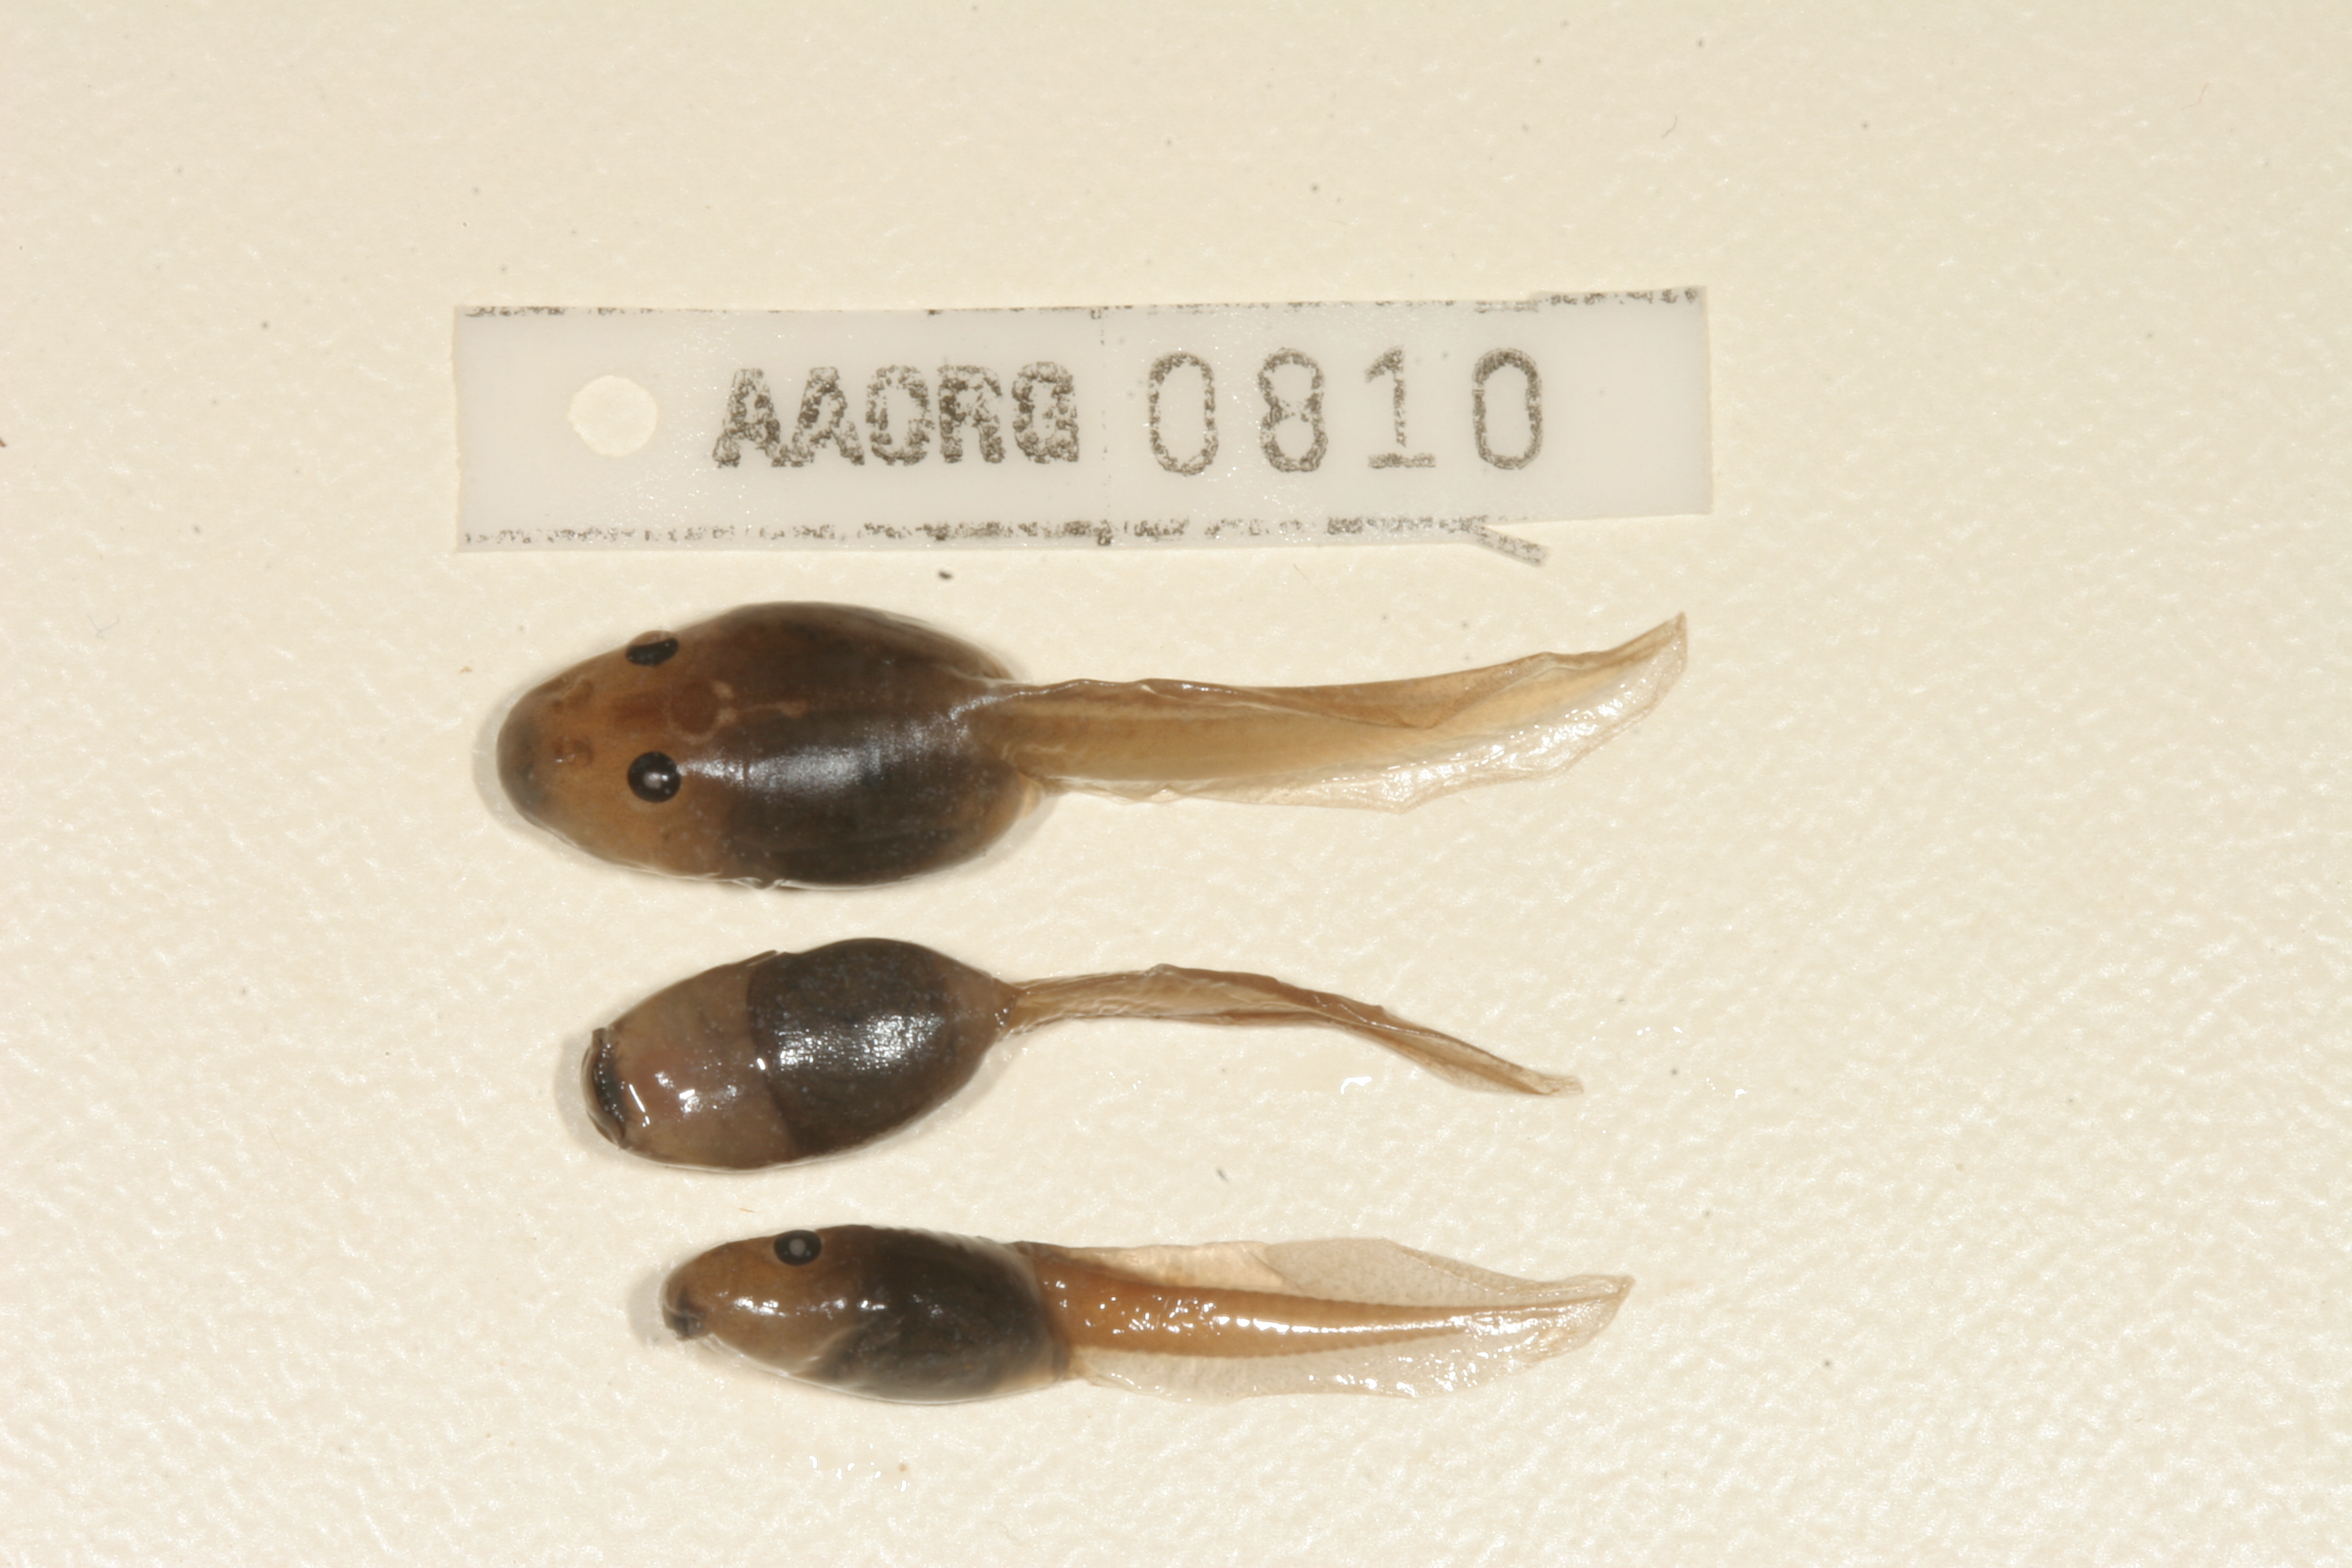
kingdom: Animalia
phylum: Chordata
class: Amphibia
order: Anura
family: Pyxicephalidae
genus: Strongylopus
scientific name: Strongylopus grayii
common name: Gray's stream frog
